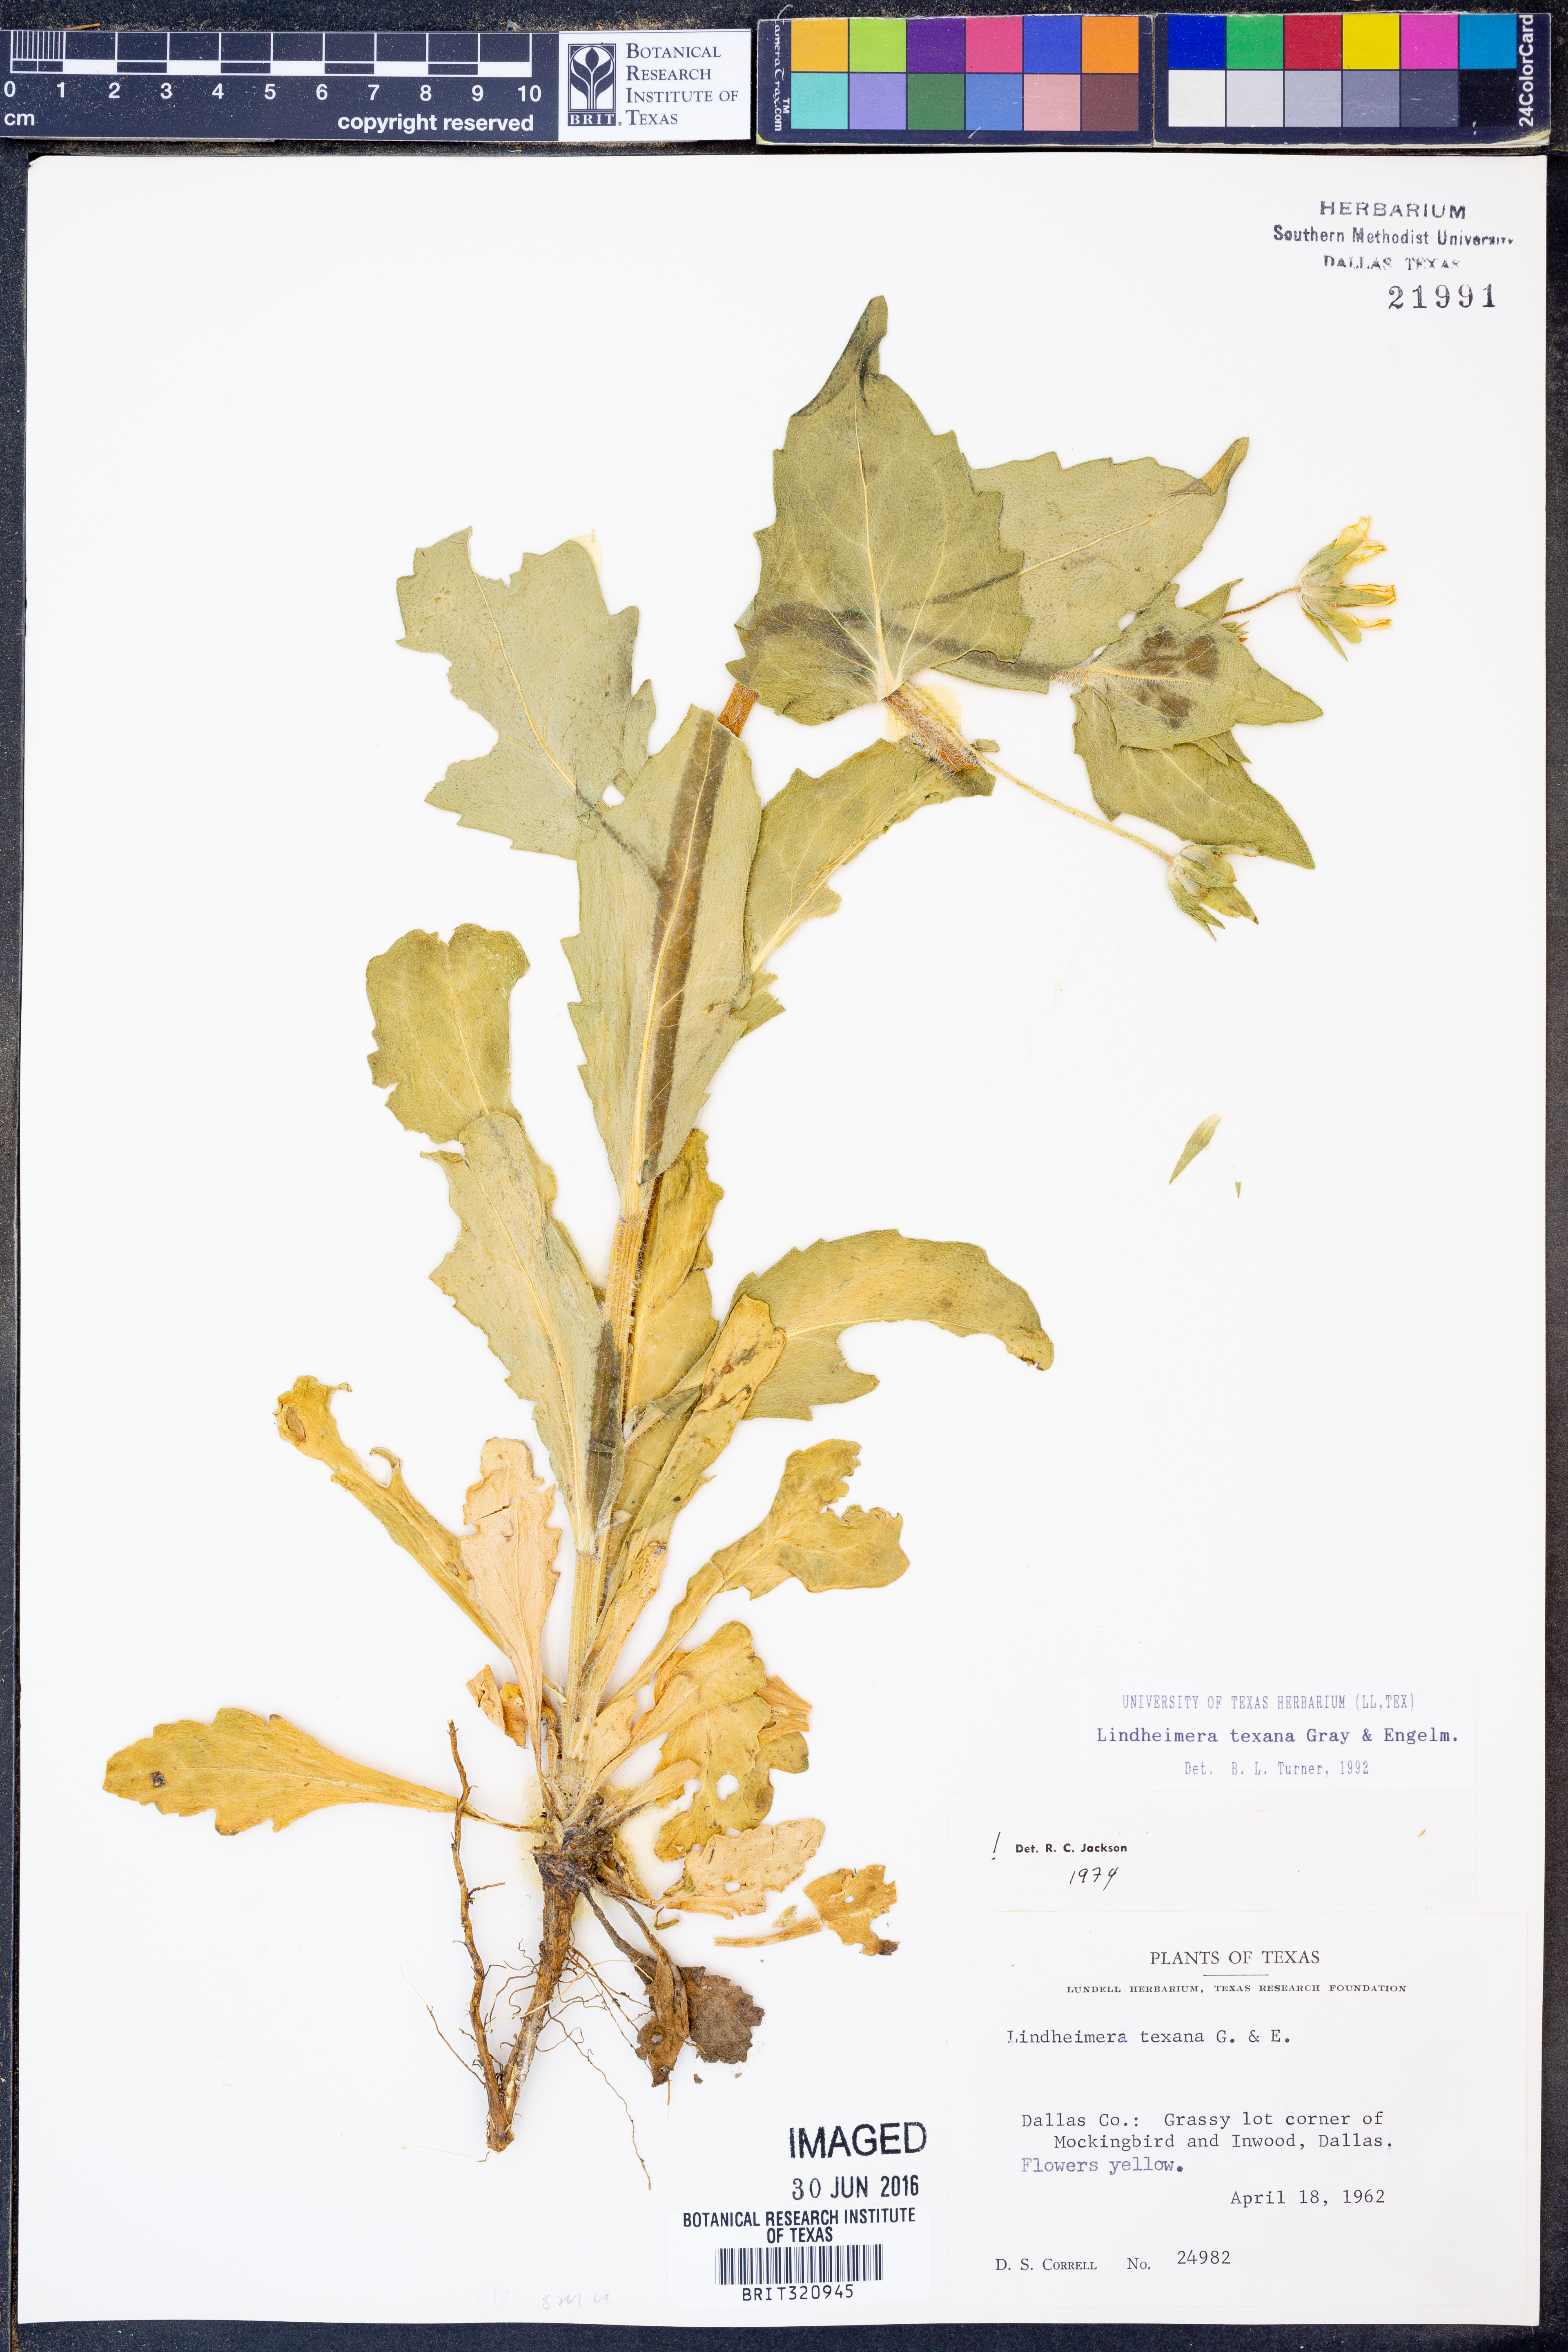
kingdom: Plantae
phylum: Tracheophyta
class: Magnoliopsida
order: Asterales
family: Asteraceae
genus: Lindheimera
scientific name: Lindheimera texana
